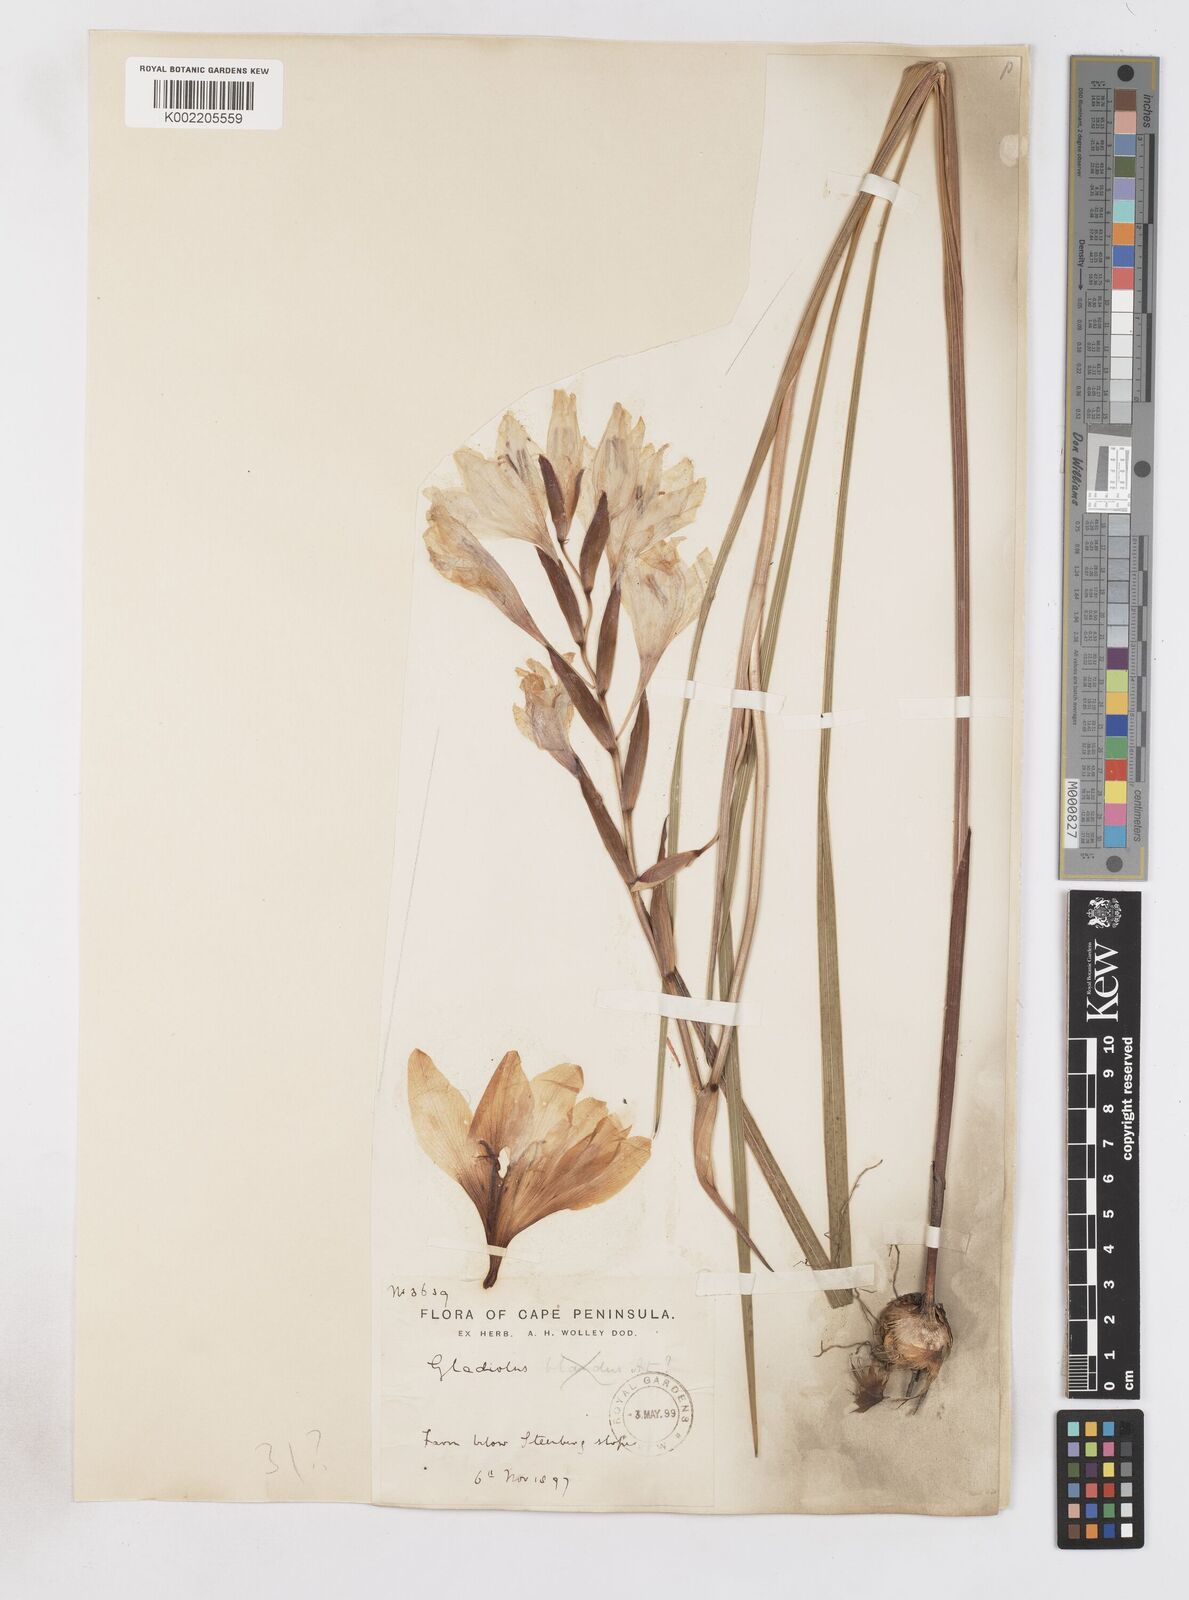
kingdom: Plantae
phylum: Tracheophyta
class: Liliopsida
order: Asparagales
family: Iridaceae
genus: Gladiolus
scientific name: Gladiolus carneus
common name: Painted-lady
